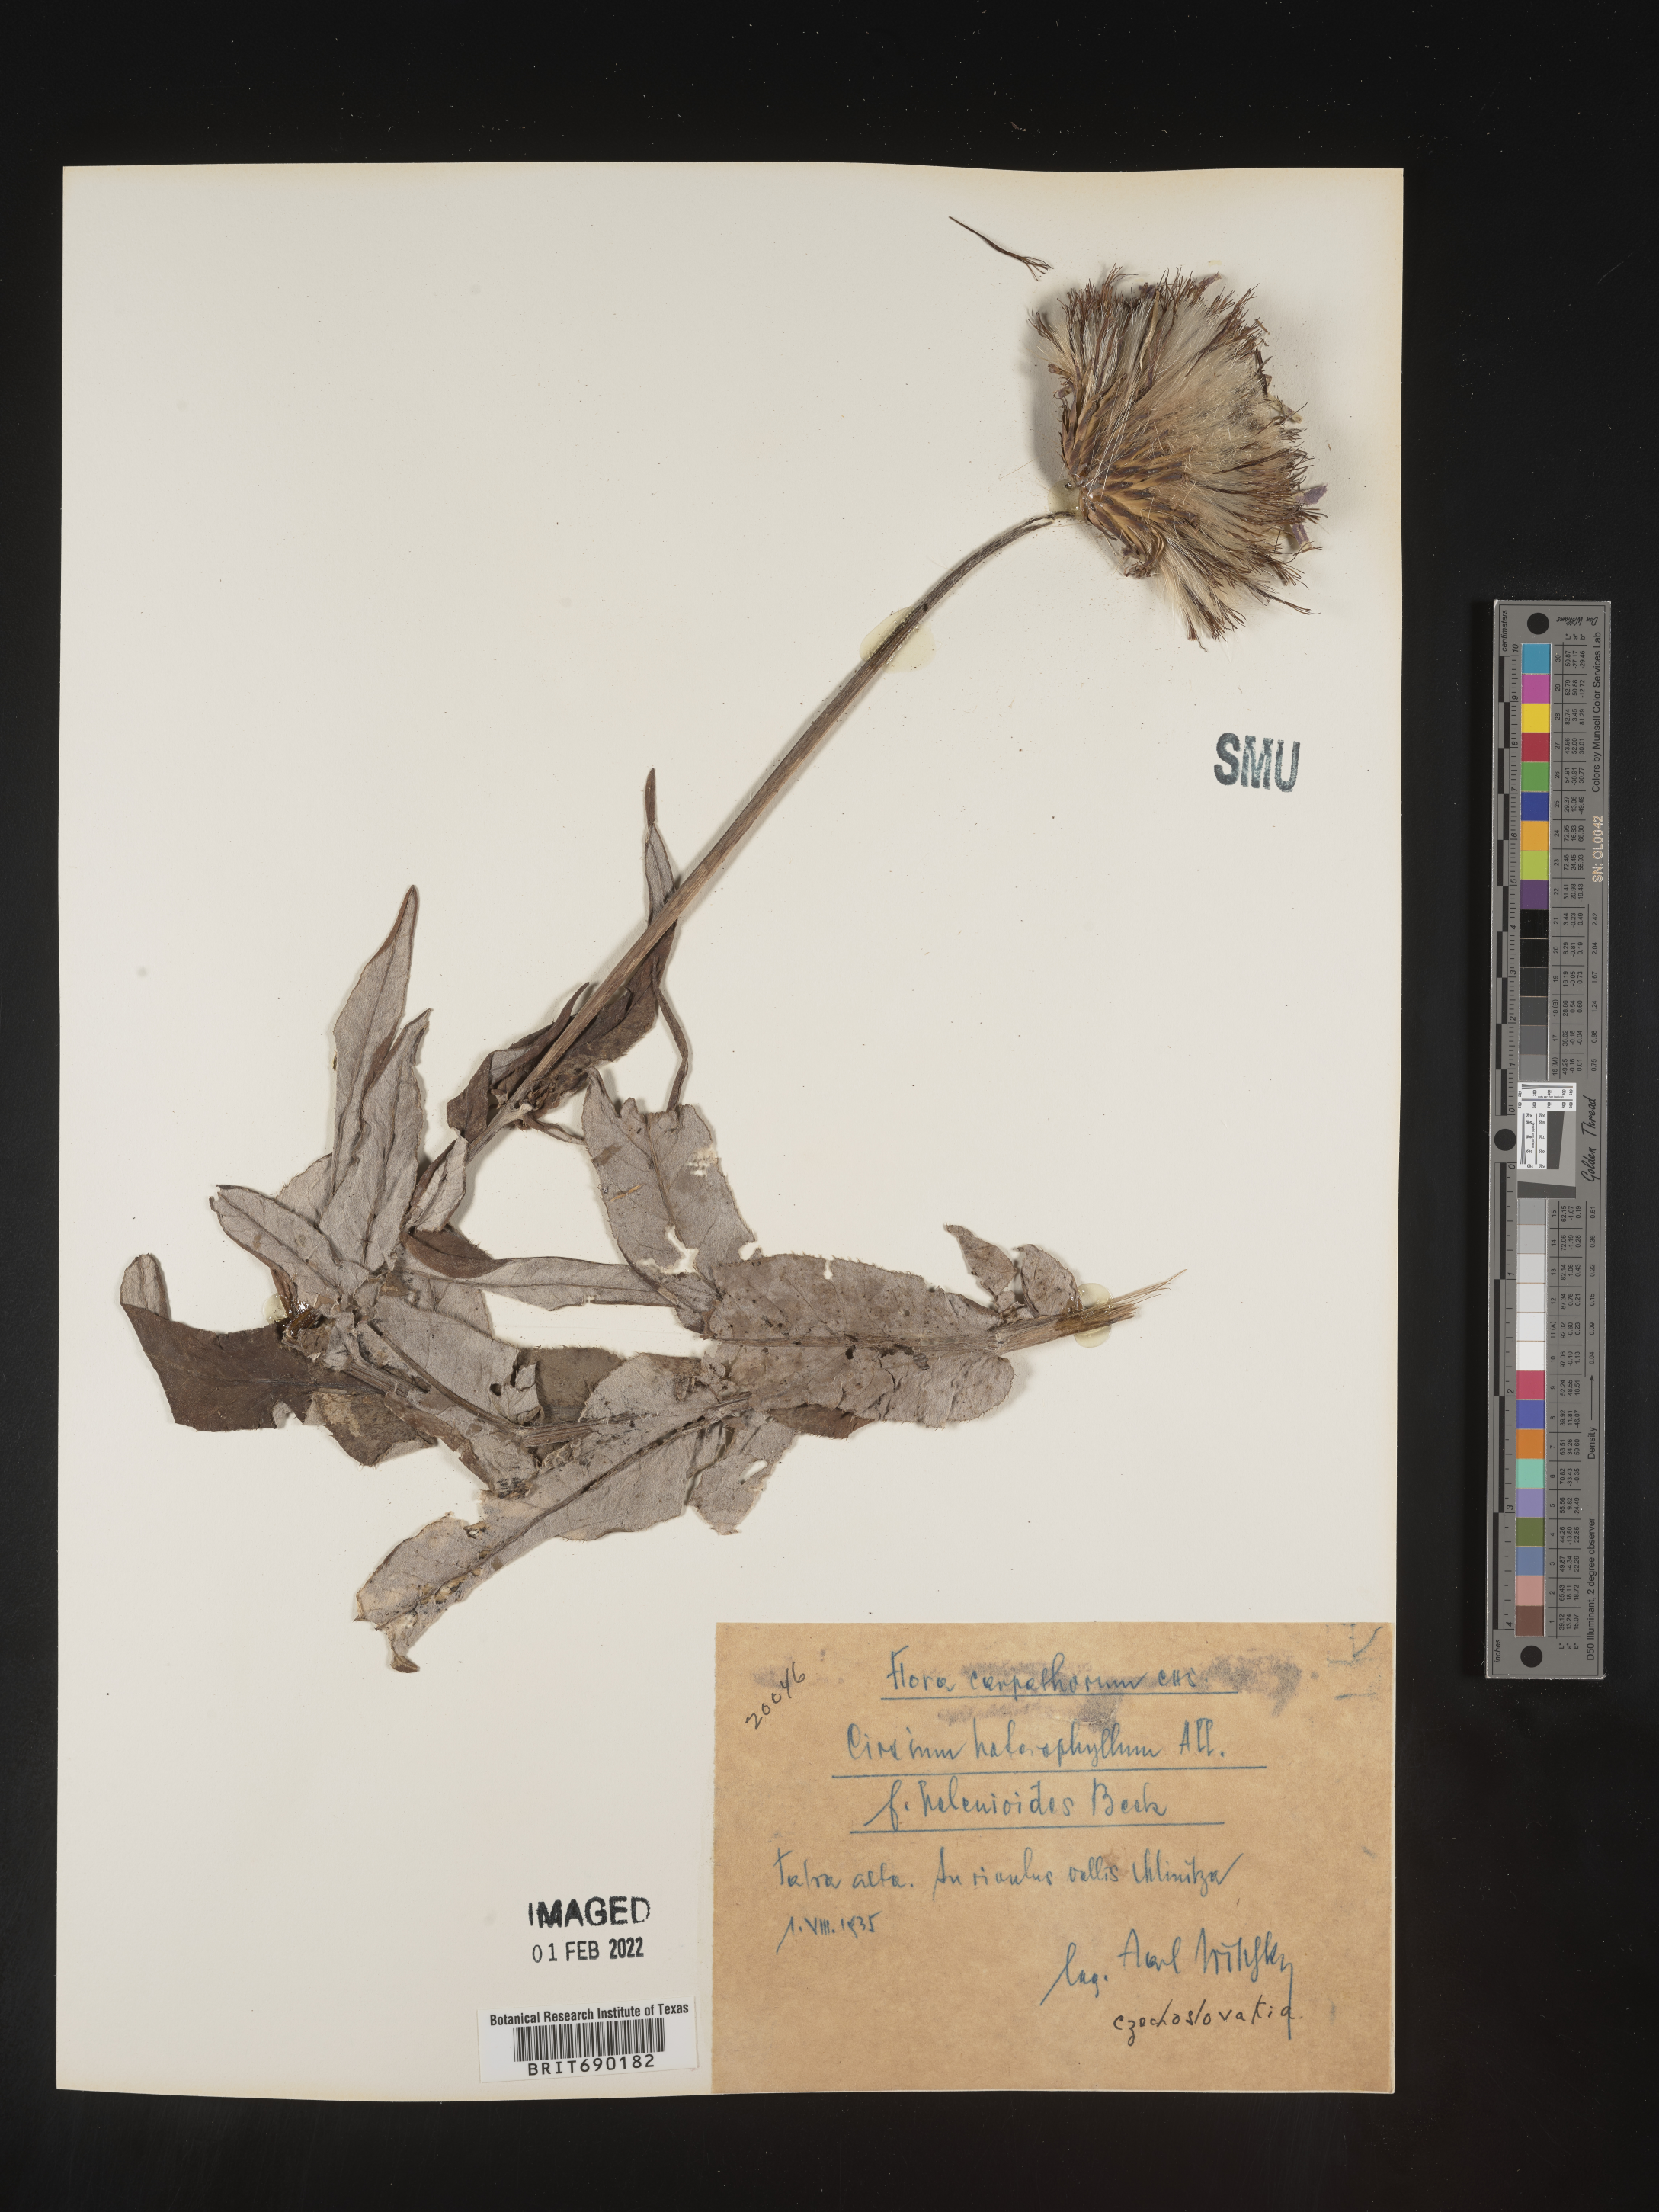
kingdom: Plantae
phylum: Tracheophyta
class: Magnoliopsida
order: Asterales
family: Asteraceae
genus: Cirsium
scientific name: Cirsium
